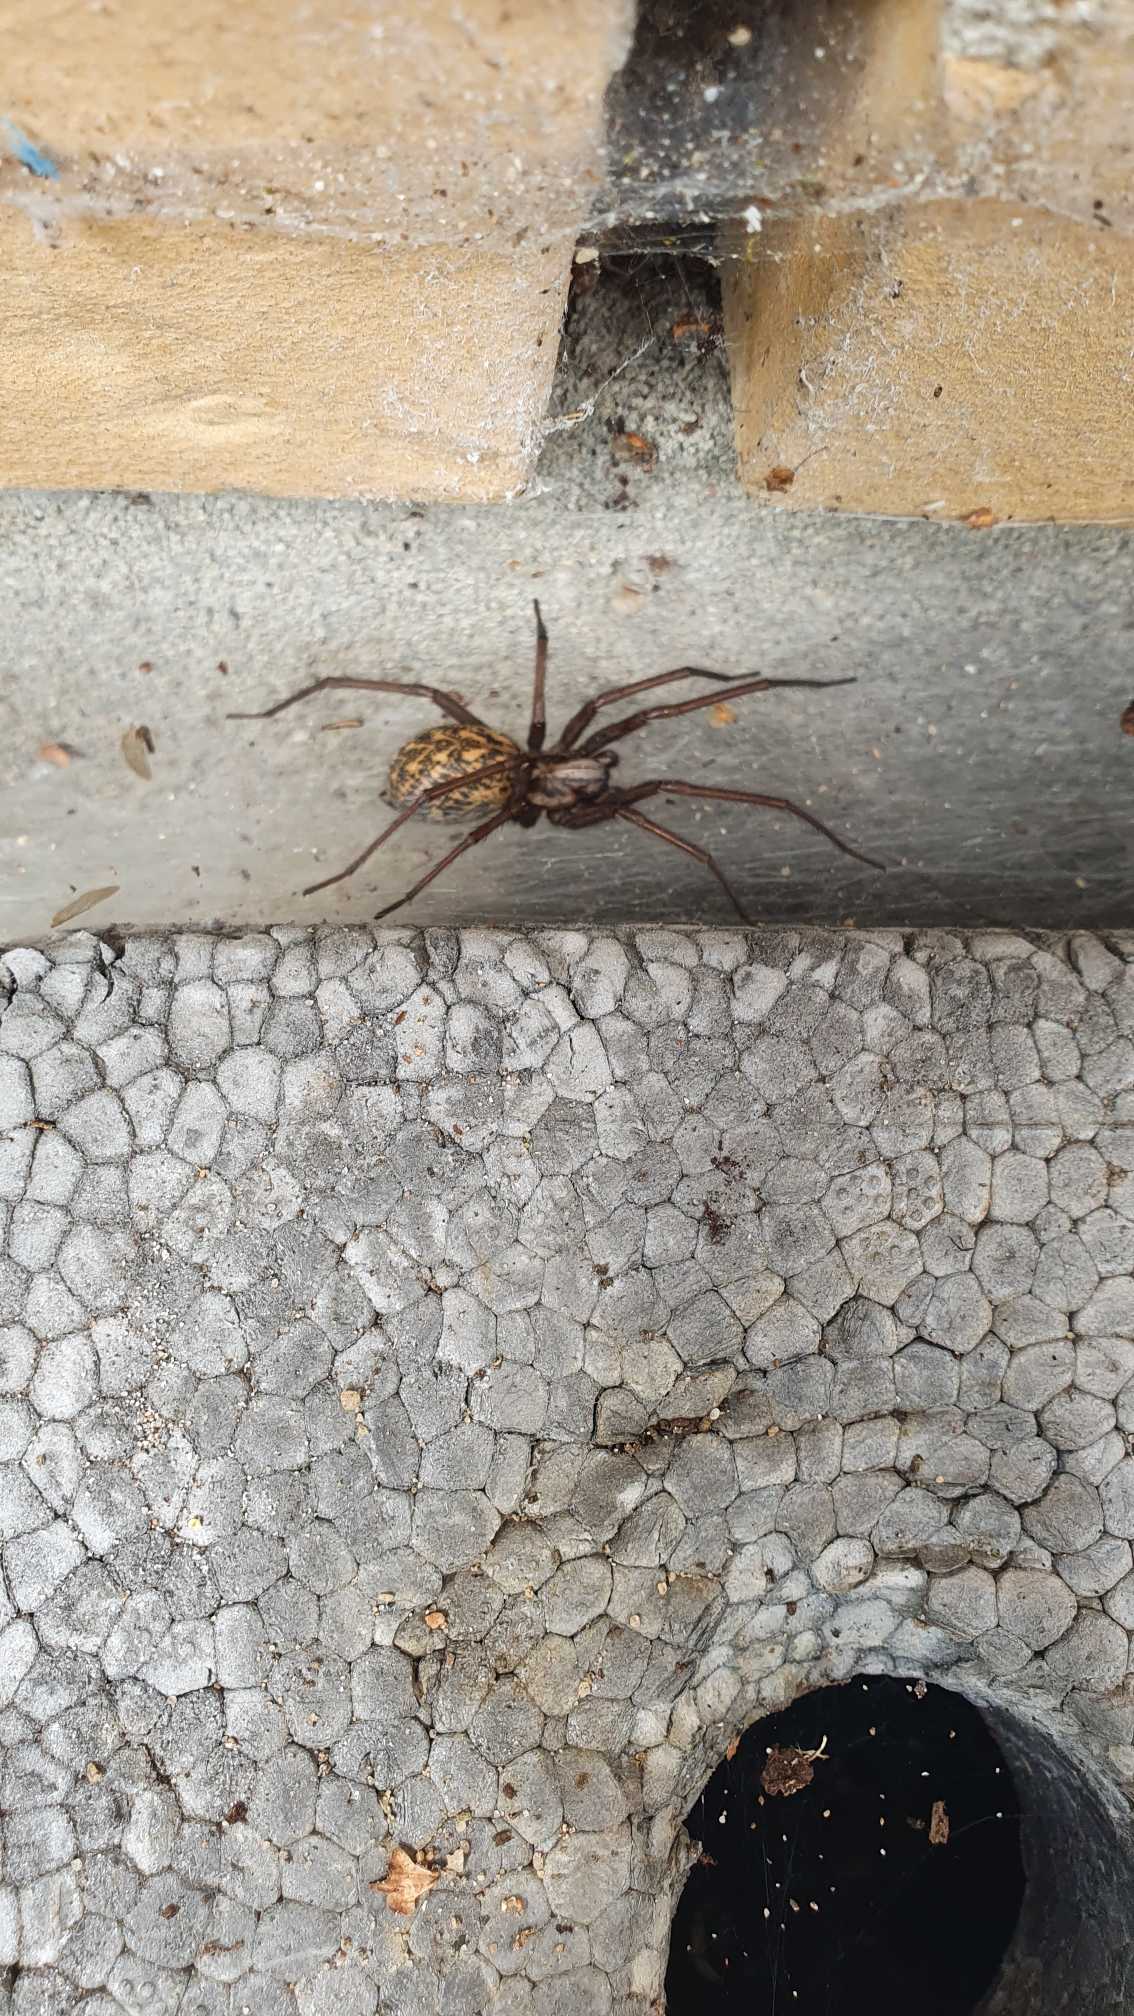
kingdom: Animalia
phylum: Arthropoda
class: Arachnida
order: Araneae
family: Agelenidae
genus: Eratigena
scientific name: Eratigena atrica
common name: Stor husedderkop
